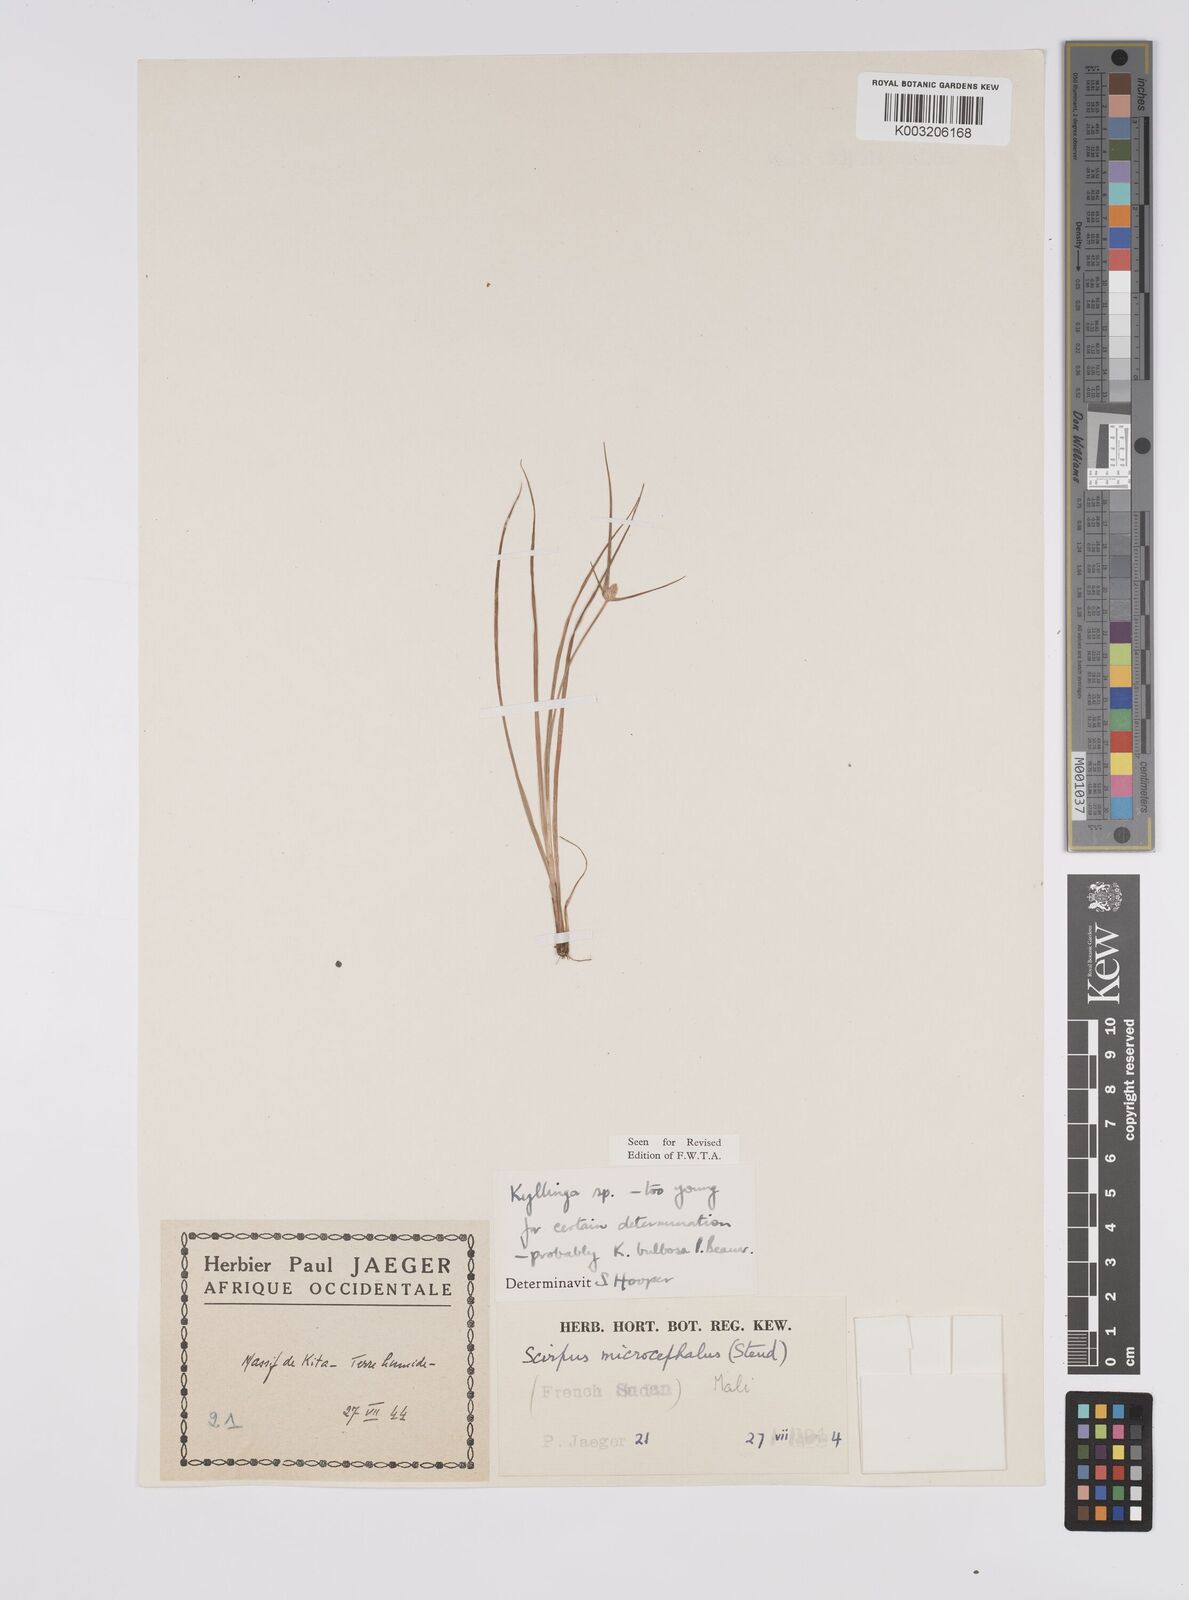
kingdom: Plantae
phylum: Tracheophyta
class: Liliopsida
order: Poales
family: Cyperaceae
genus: Cyperus
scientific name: Cyperus microbulbosus
